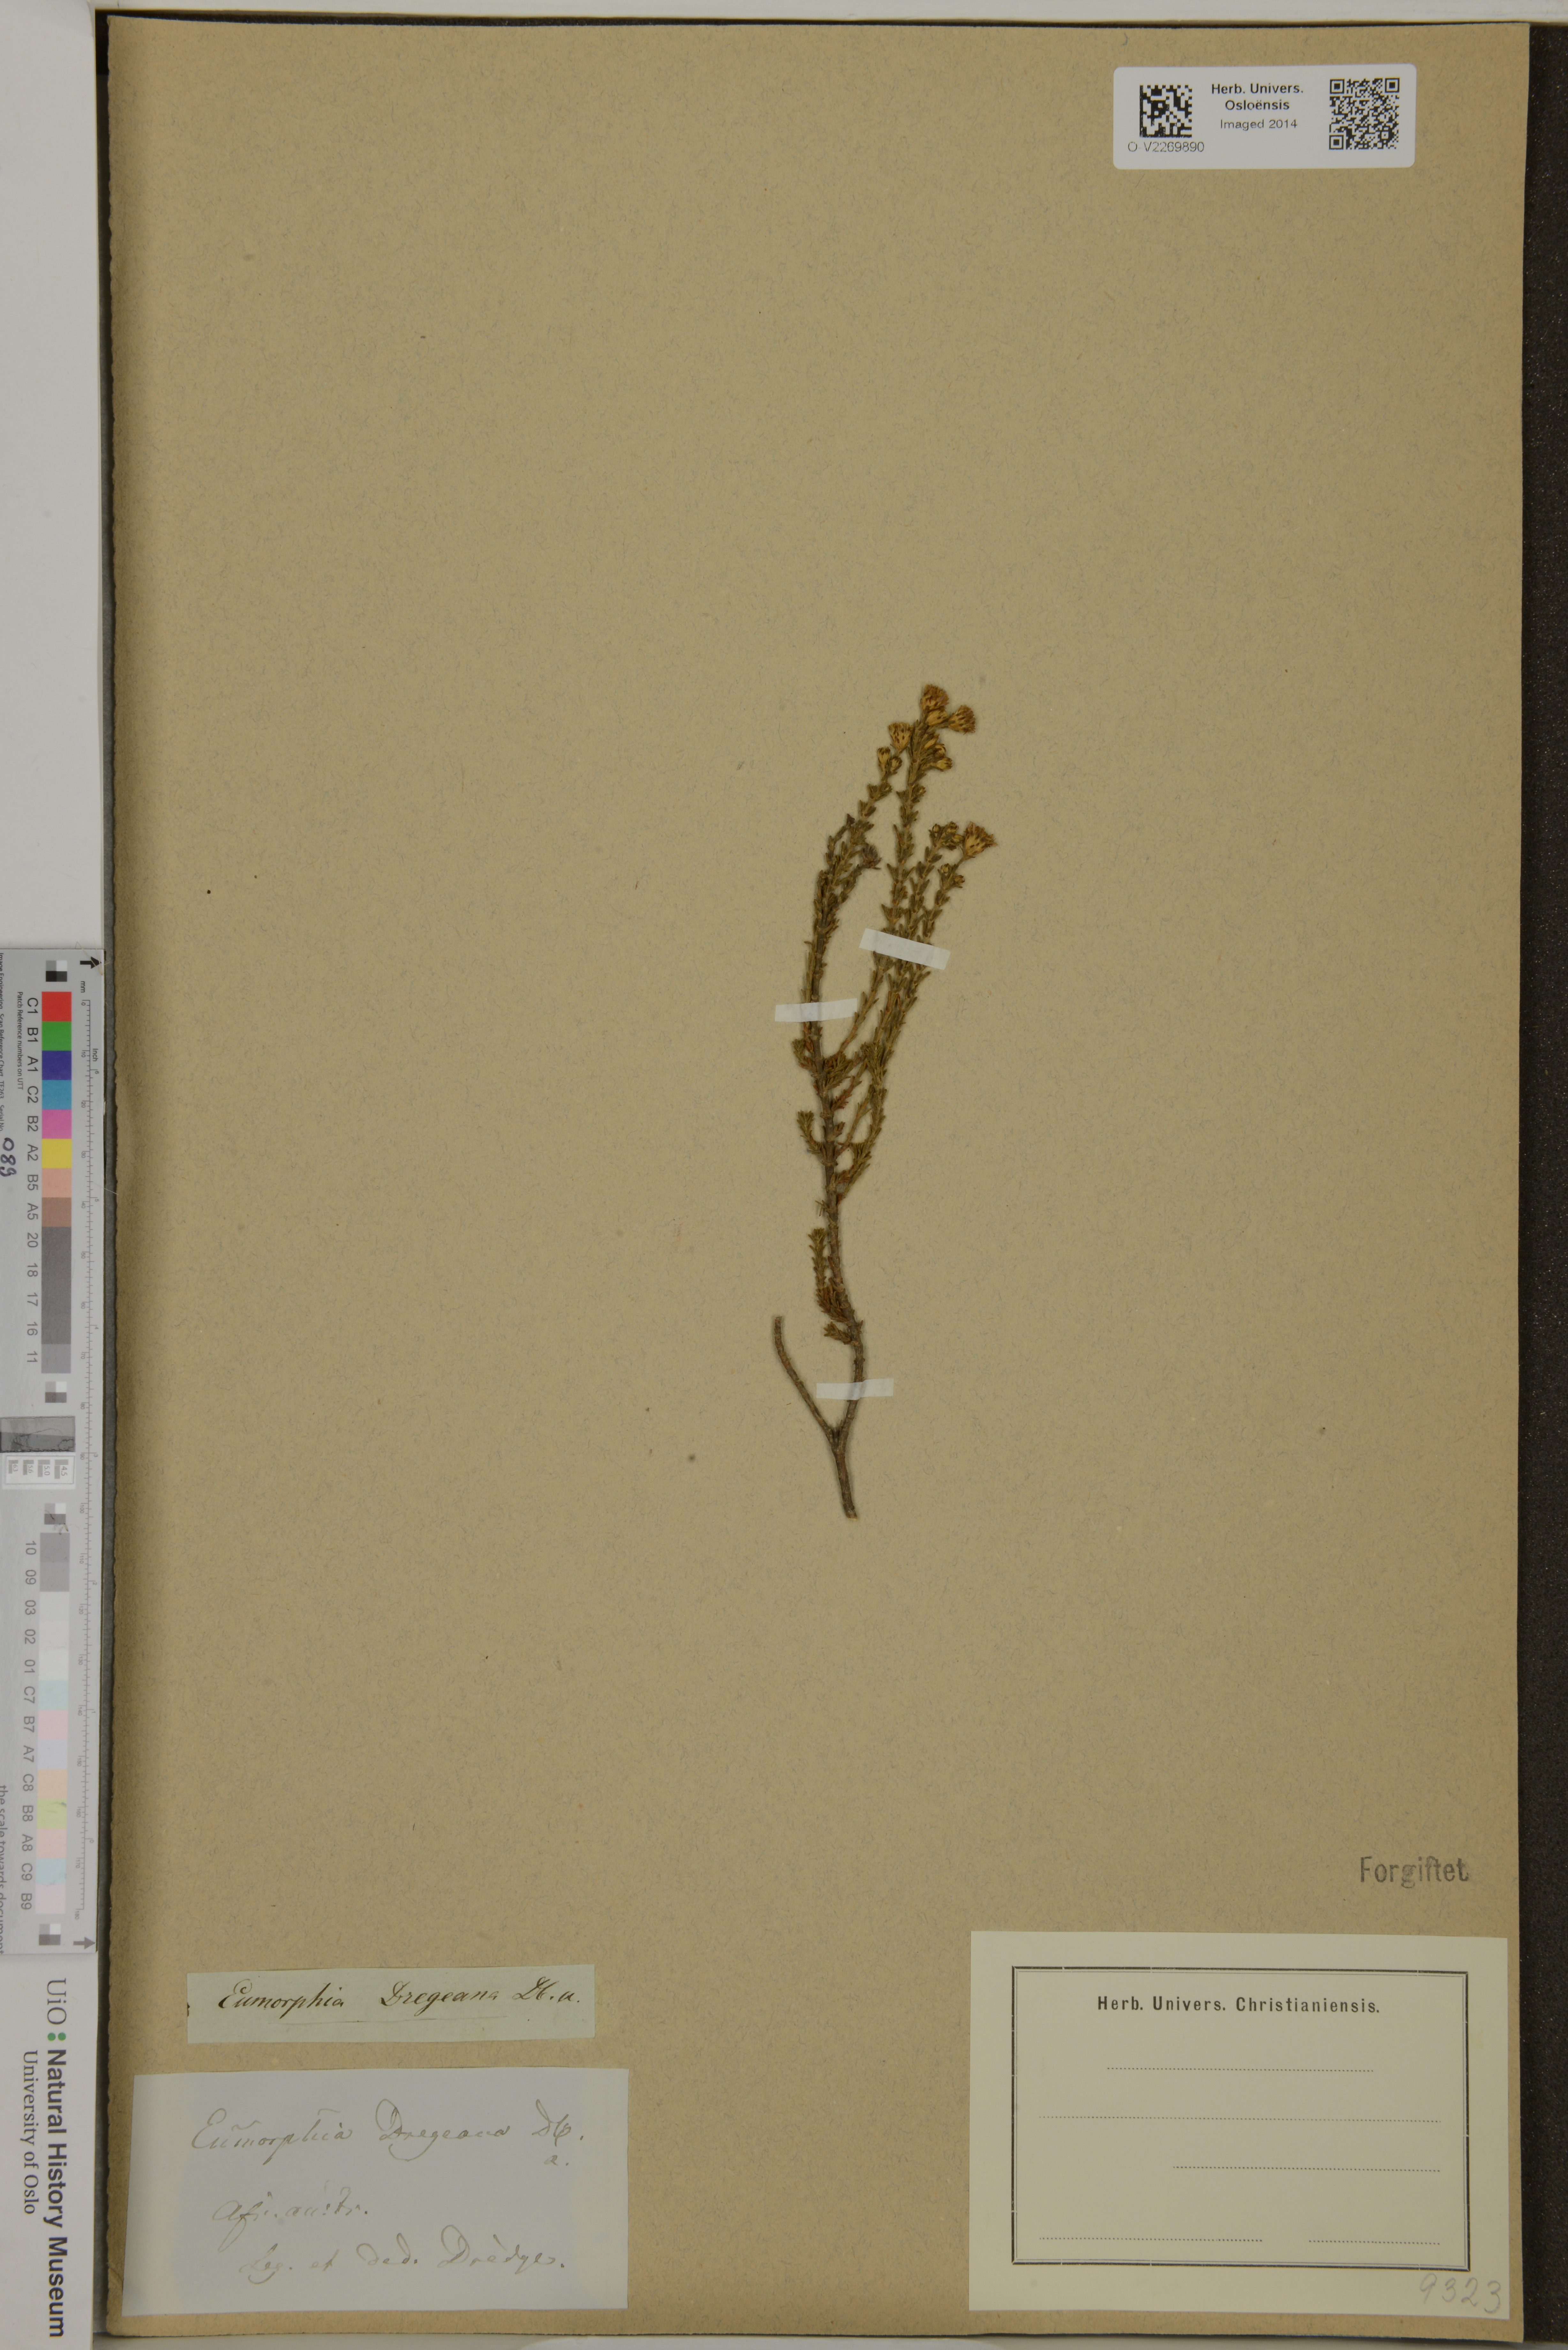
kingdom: Plantae
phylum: Tracheophyta
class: Magnoliopsida
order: Asterales
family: Asteraceae
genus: Eumorphia
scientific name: Eumorphia dregeana
